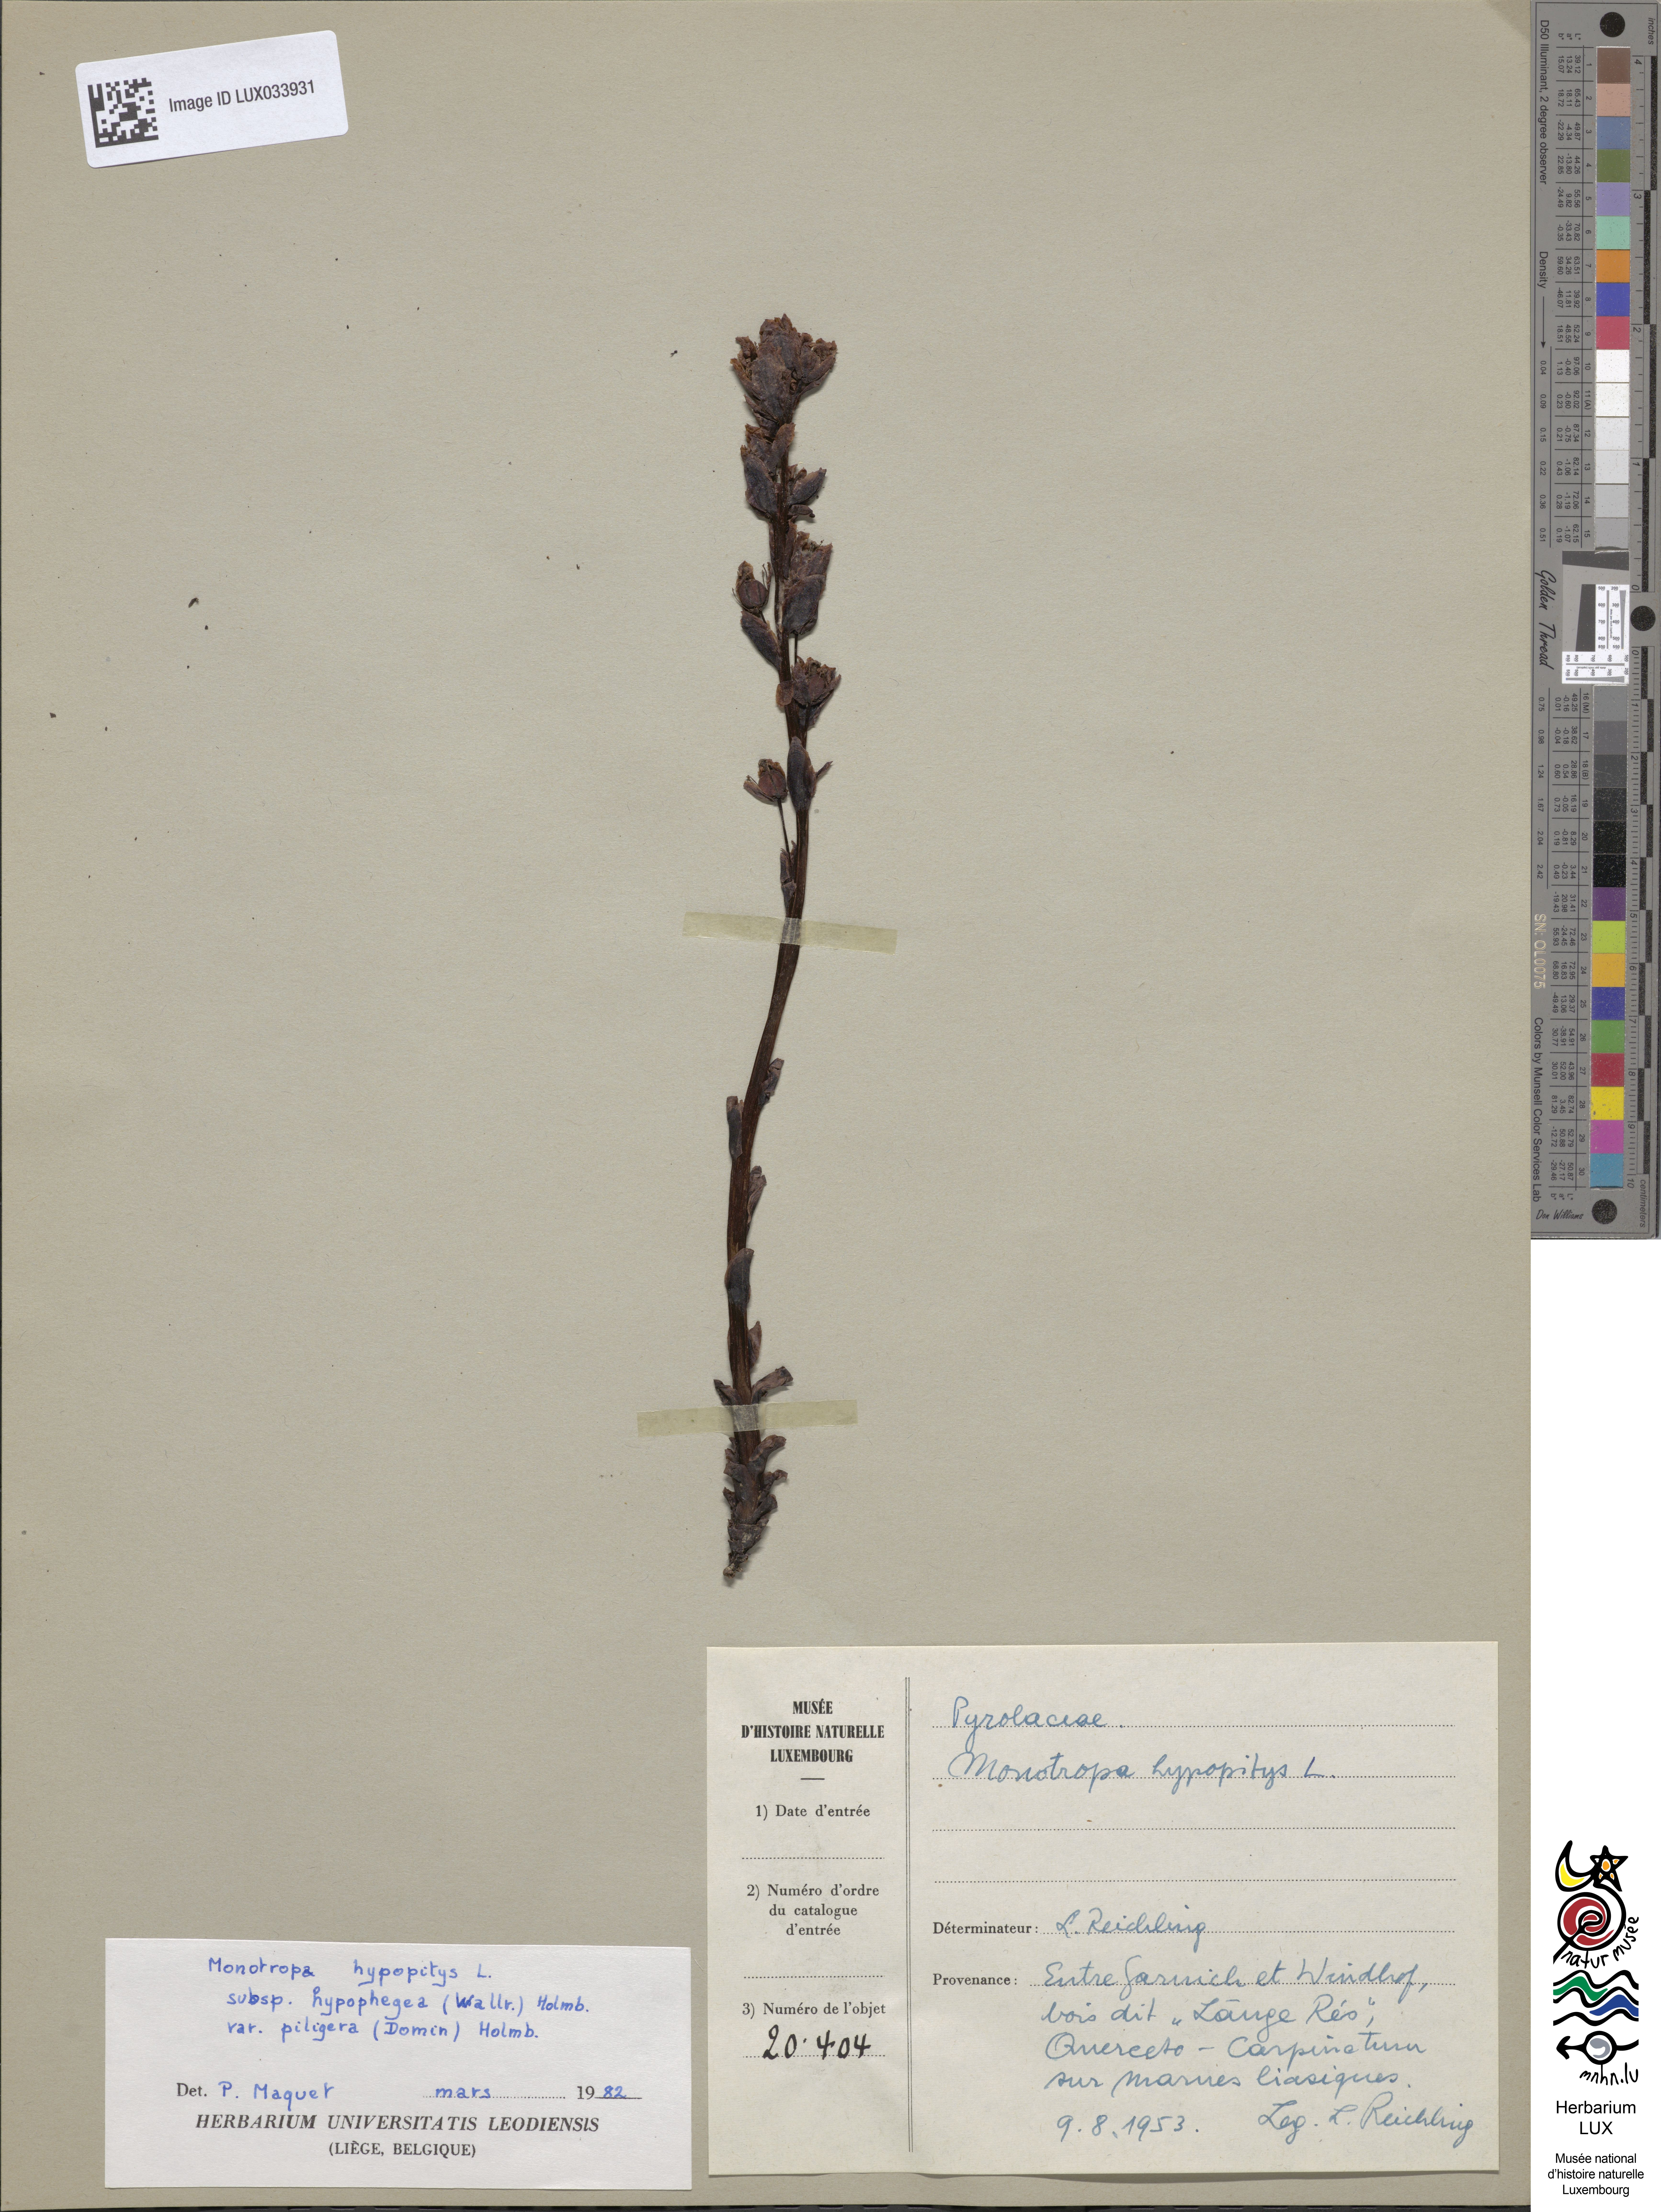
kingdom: Plantae
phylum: Tracheophyta
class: Magnoliopsida
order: Ericales
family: Ericaceae
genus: Hypopitys
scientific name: Hypopitys monotropa
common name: Yellow bird's-nest
